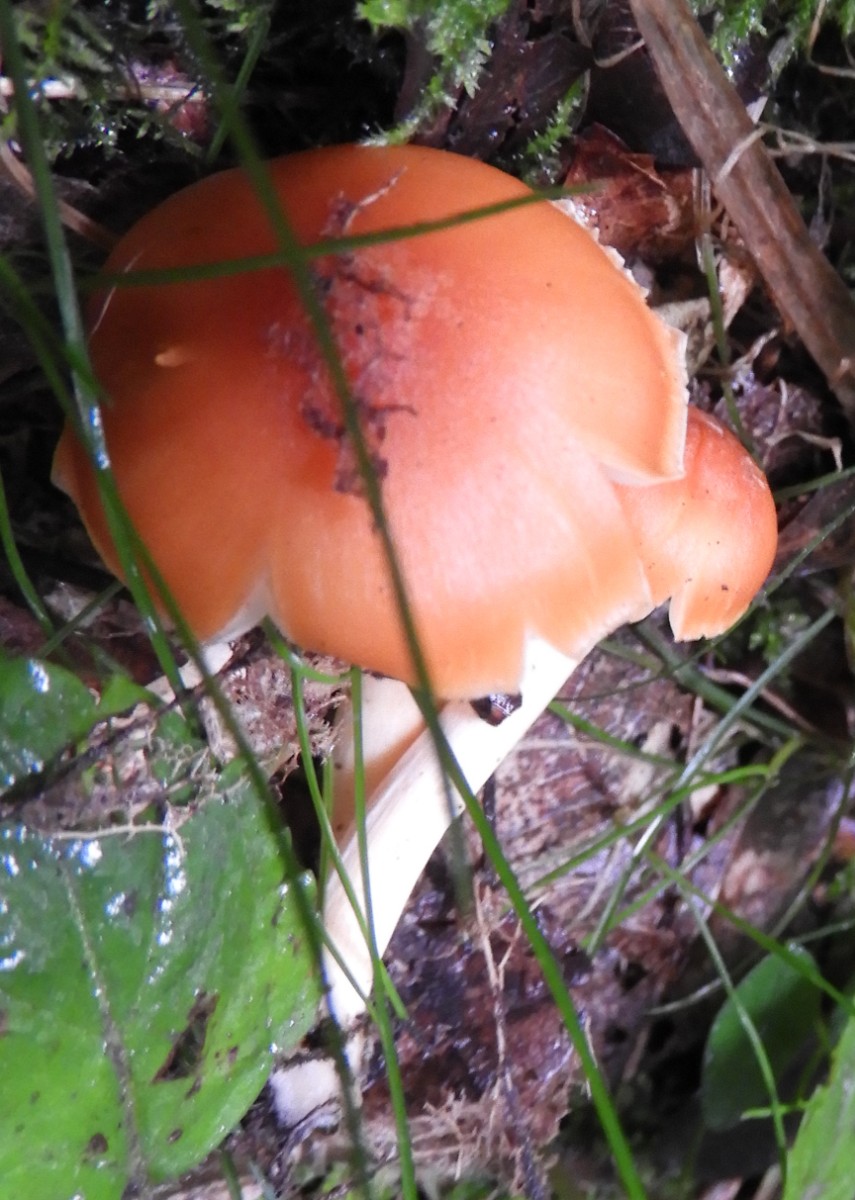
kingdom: Fungi
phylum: Basidiomycota
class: Agaricomycetes
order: Agaricales
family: Hygrophoraceae
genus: Cuphophyllus
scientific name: Cuphophyllus pratensis
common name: eng-vokshat
